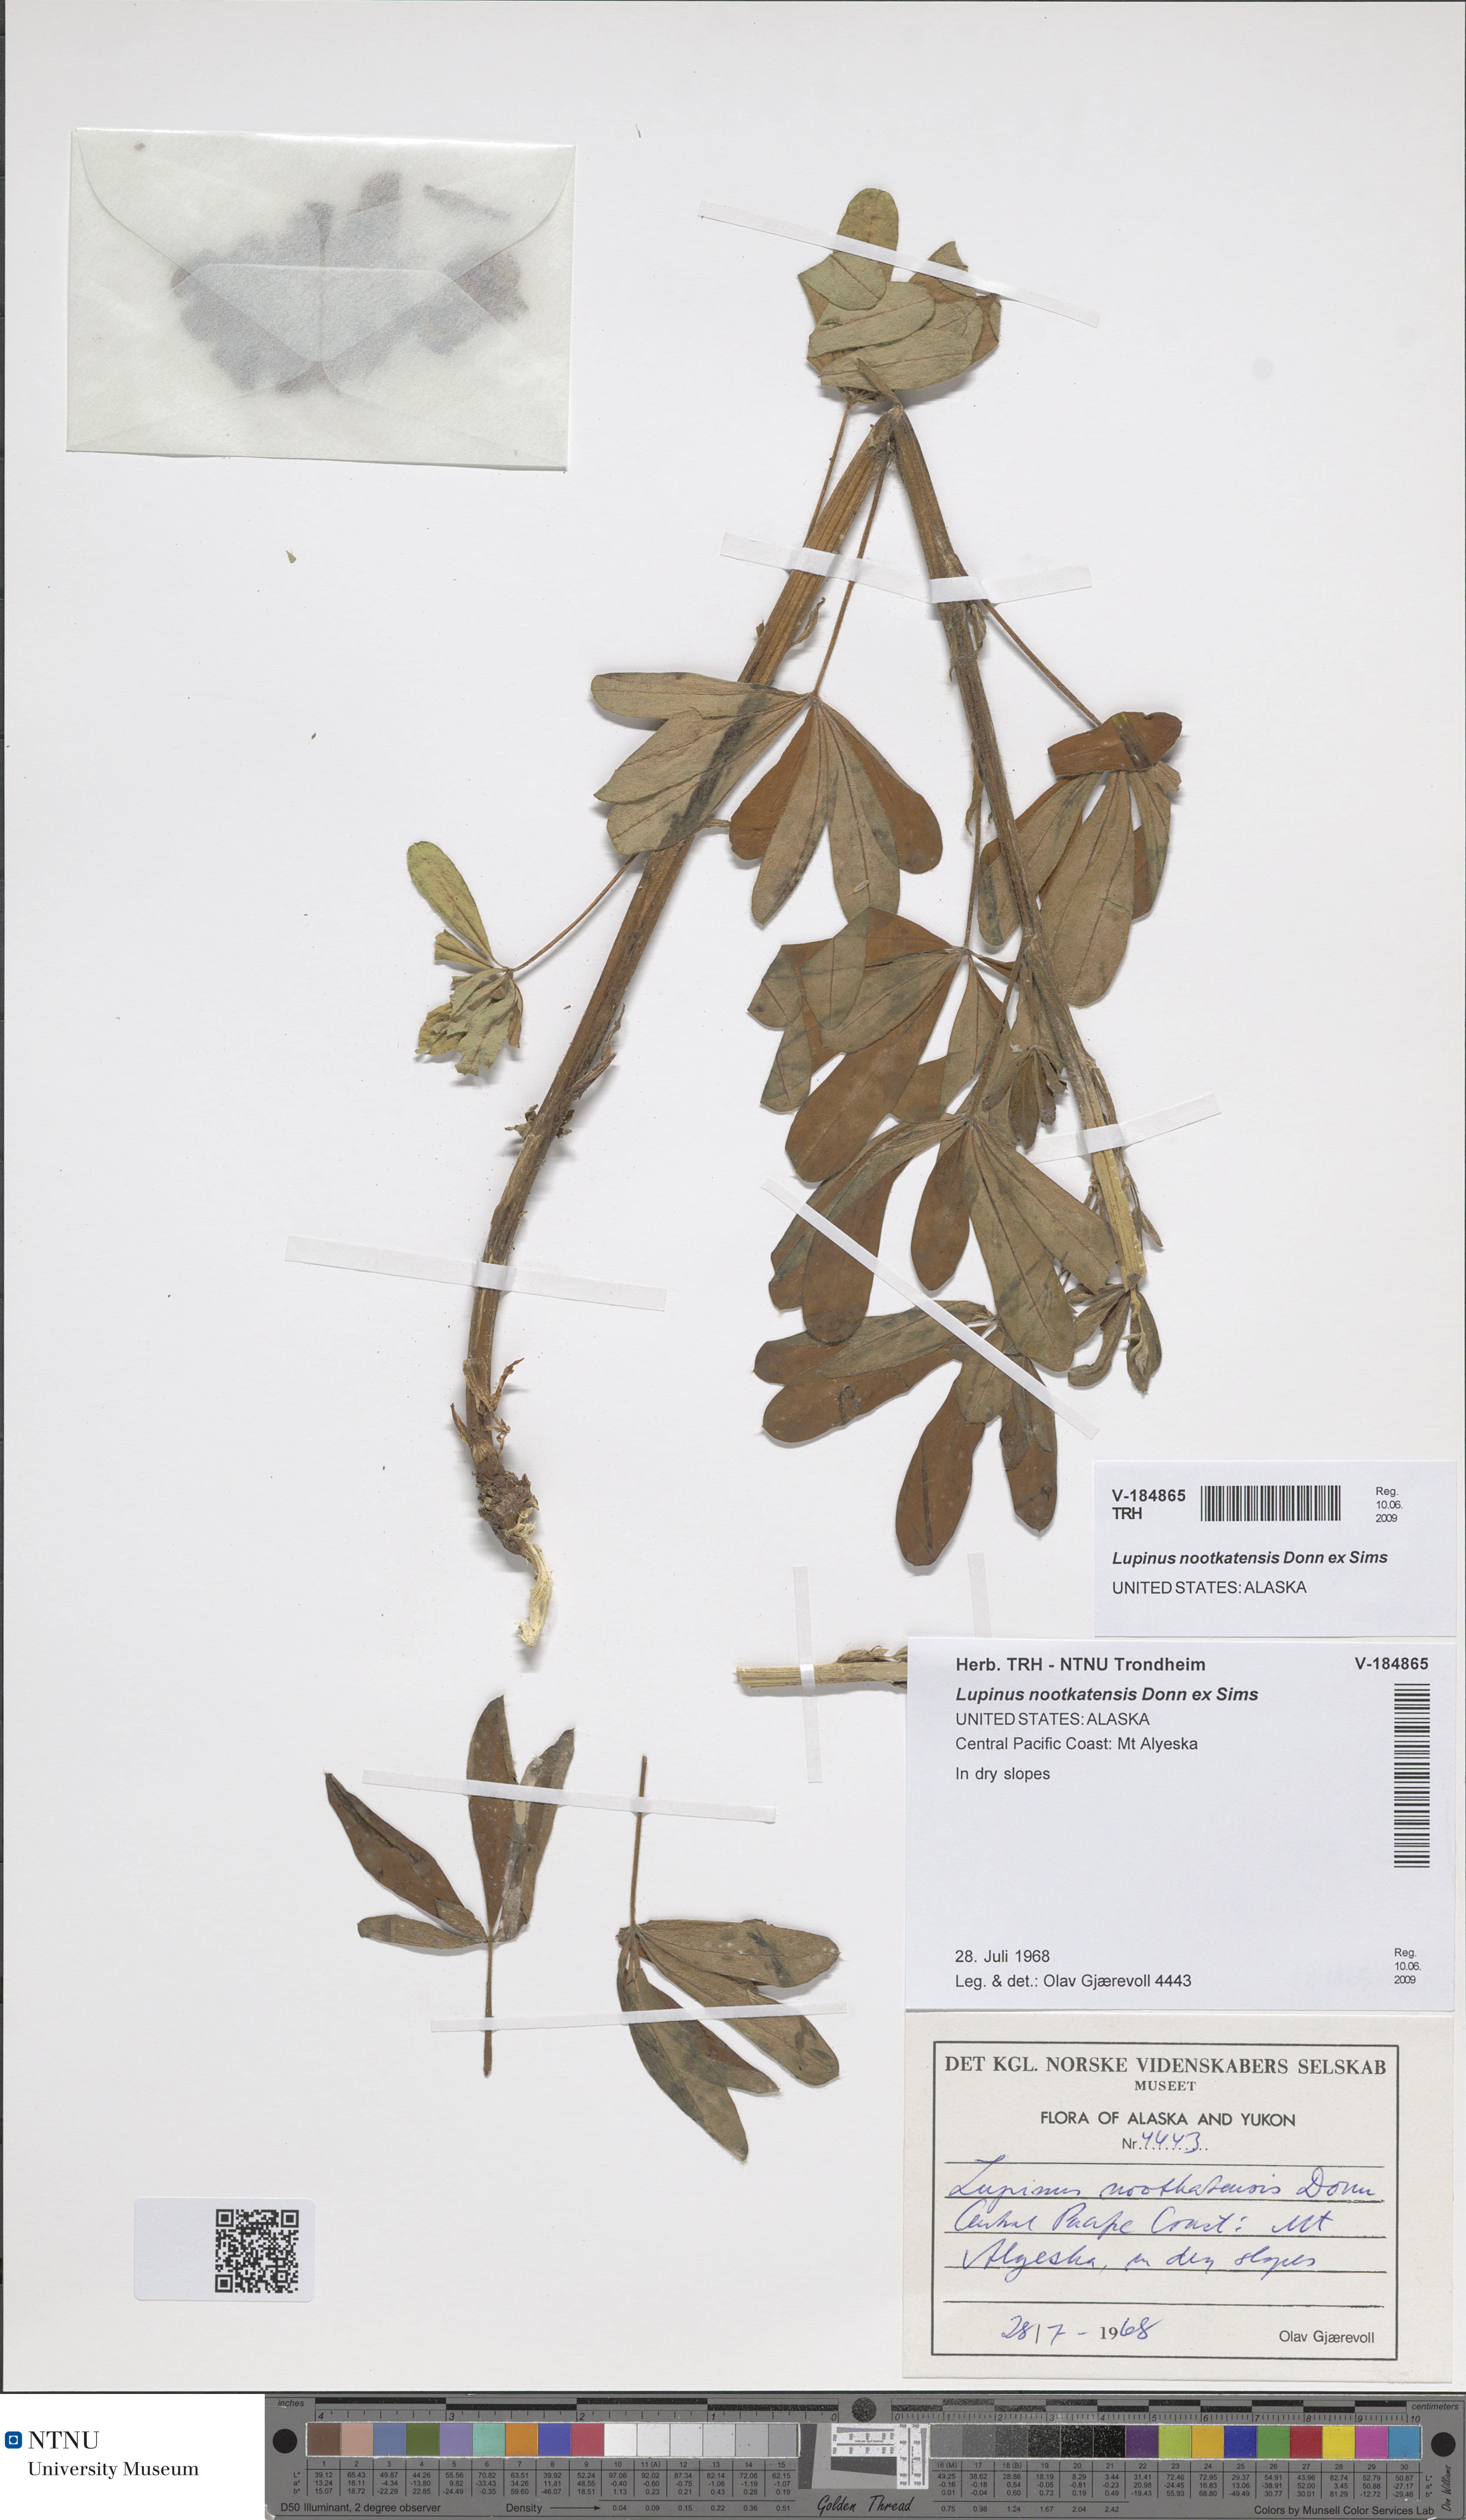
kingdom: Plantae
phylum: Tracheophyta
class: Magnoliopsida
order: Fabales
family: Fabaceae
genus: Lupinus
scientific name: Lupinus nootkatensis
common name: Nootka lupine
